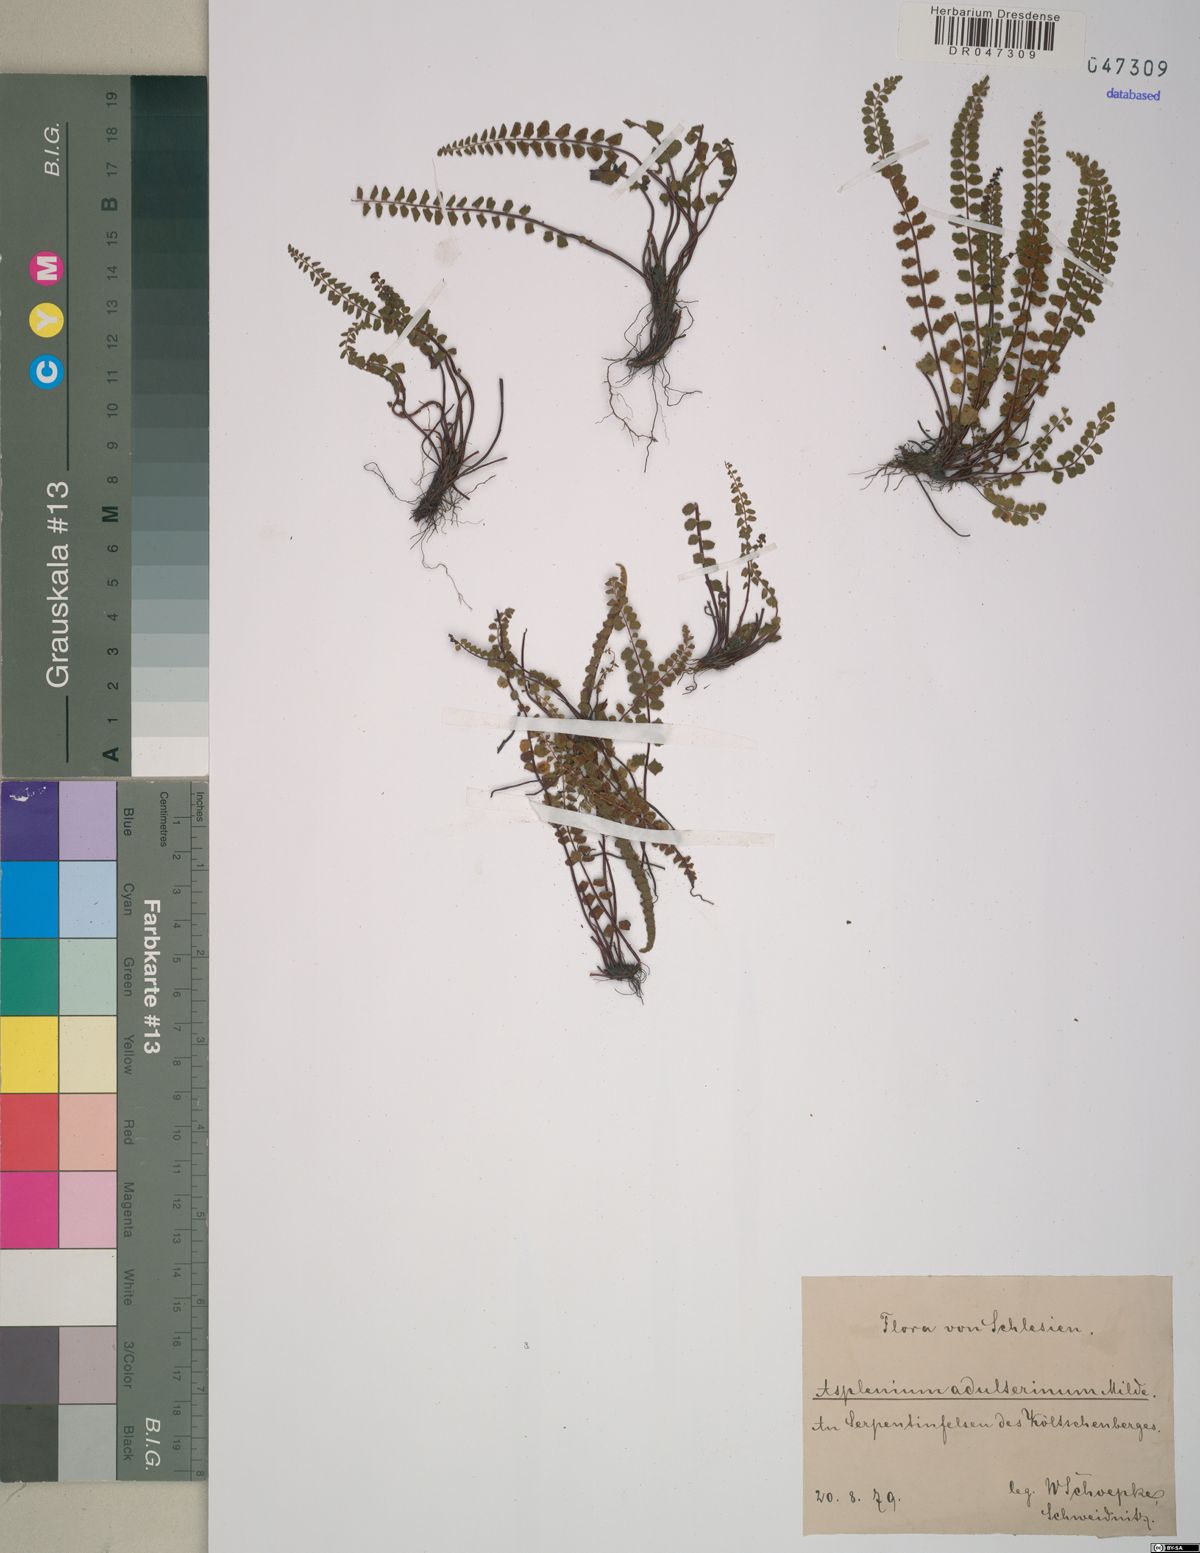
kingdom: Plantae
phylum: Tracheophyta
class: Polypodiopsida
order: Polypodiales
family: Aspleniaceae
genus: Asplenium
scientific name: Asplenium adulterinum
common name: Adulterated spleenwort
